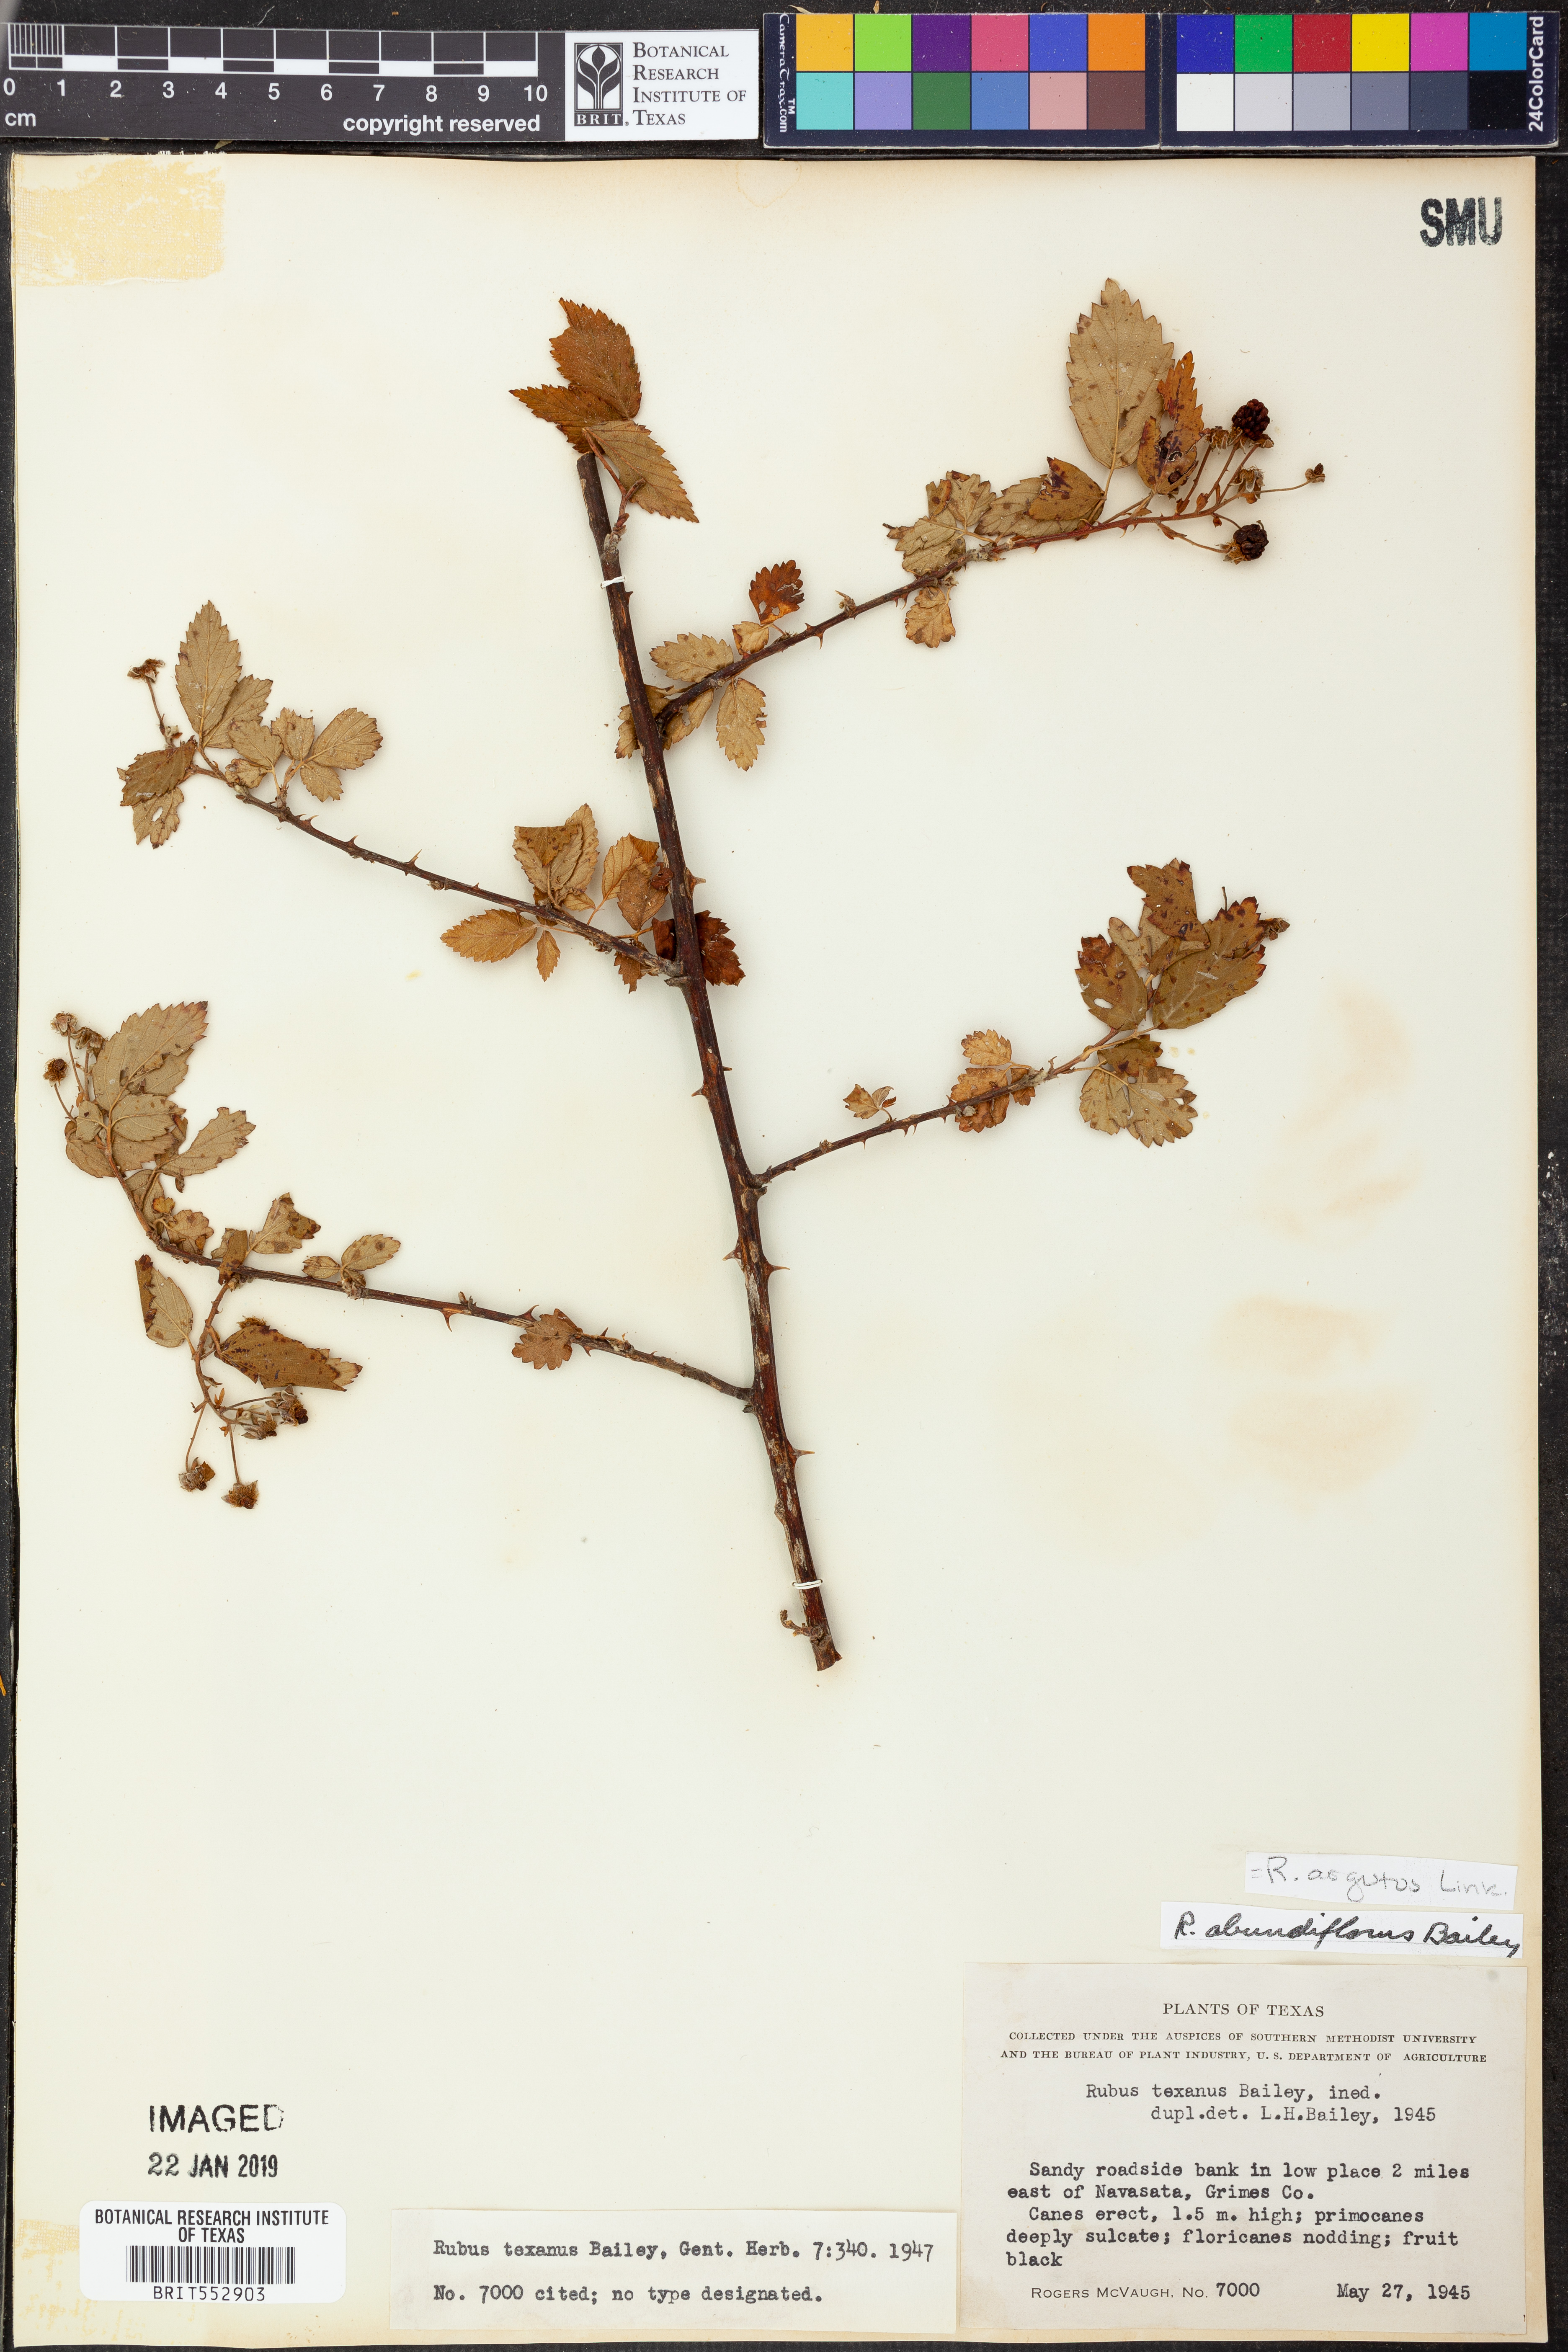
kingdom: Plantae
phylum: Tracheophyta
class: Magnoliopsida
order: Rosales
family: Rosaceae
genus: Rubus
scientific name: Rubus argutus
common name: Sawtooth blackberry
